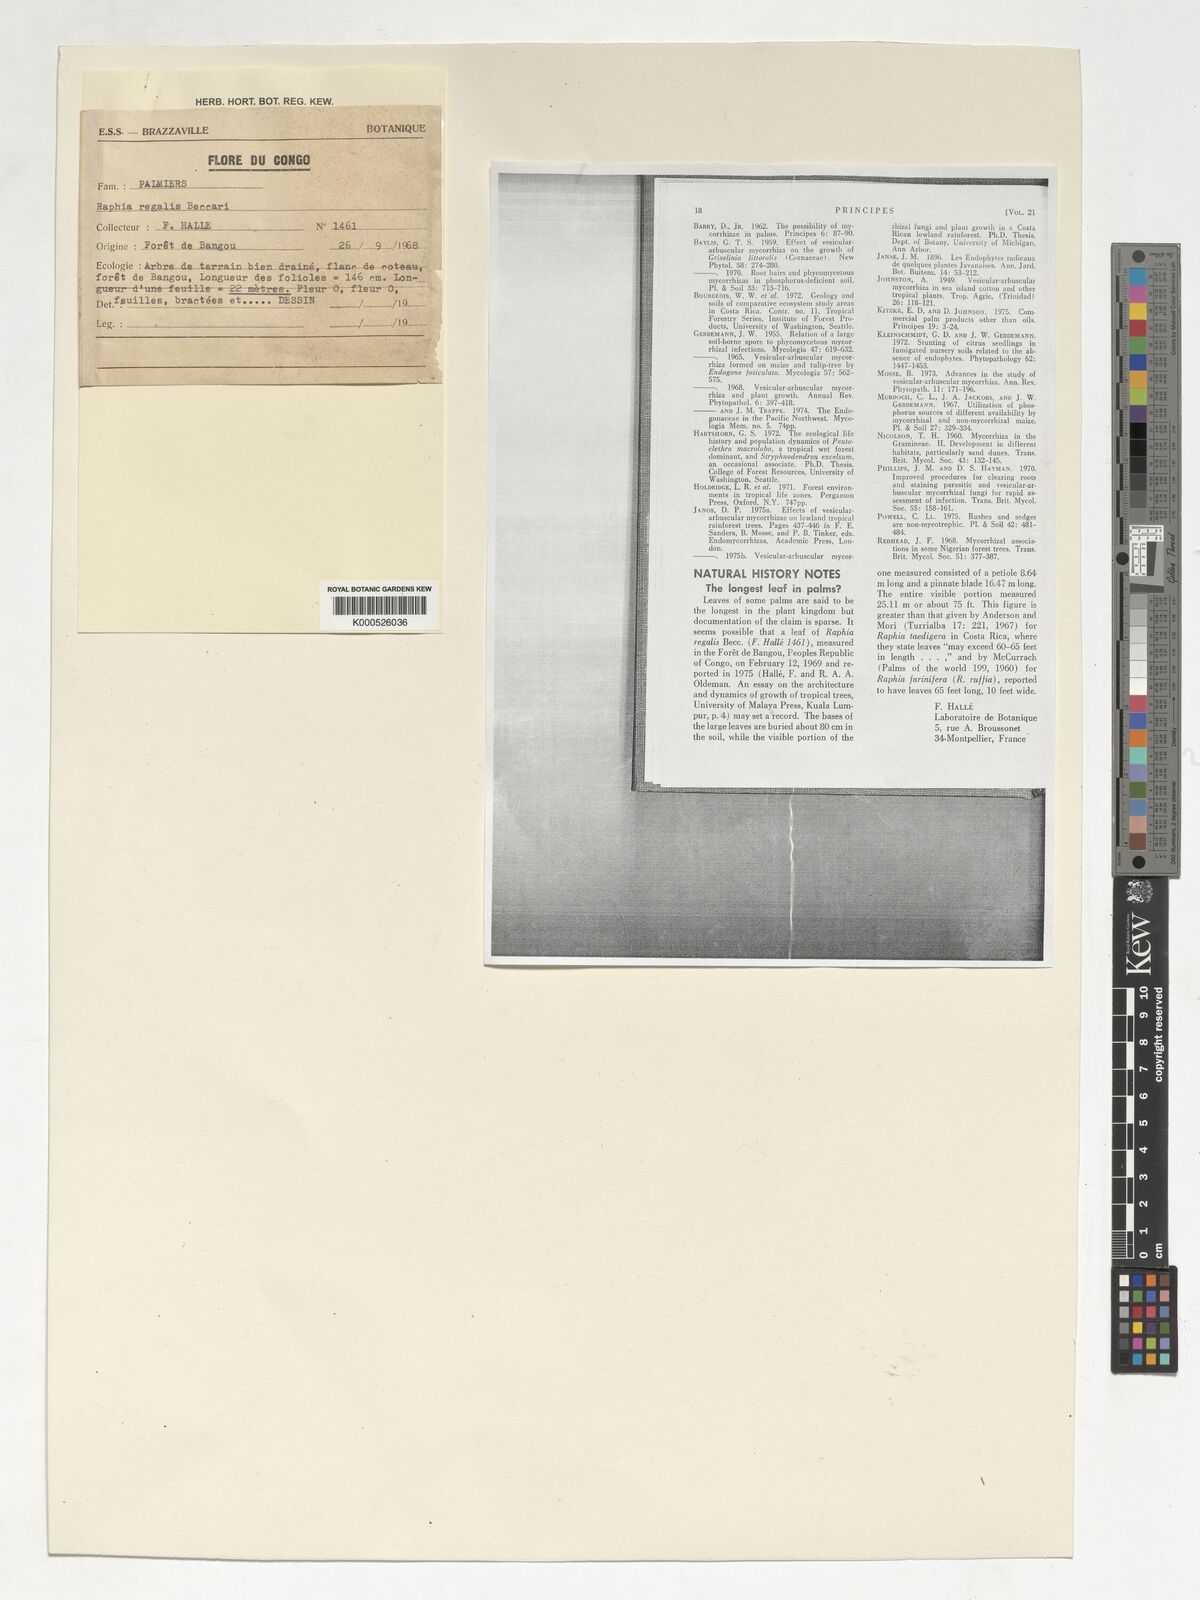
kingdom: Plantae
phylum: Tracheophyta
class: Liliopsida
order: Arecales
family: Arecaceae
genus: Raphia
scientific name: Raphia regalis
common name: Raphia palm
